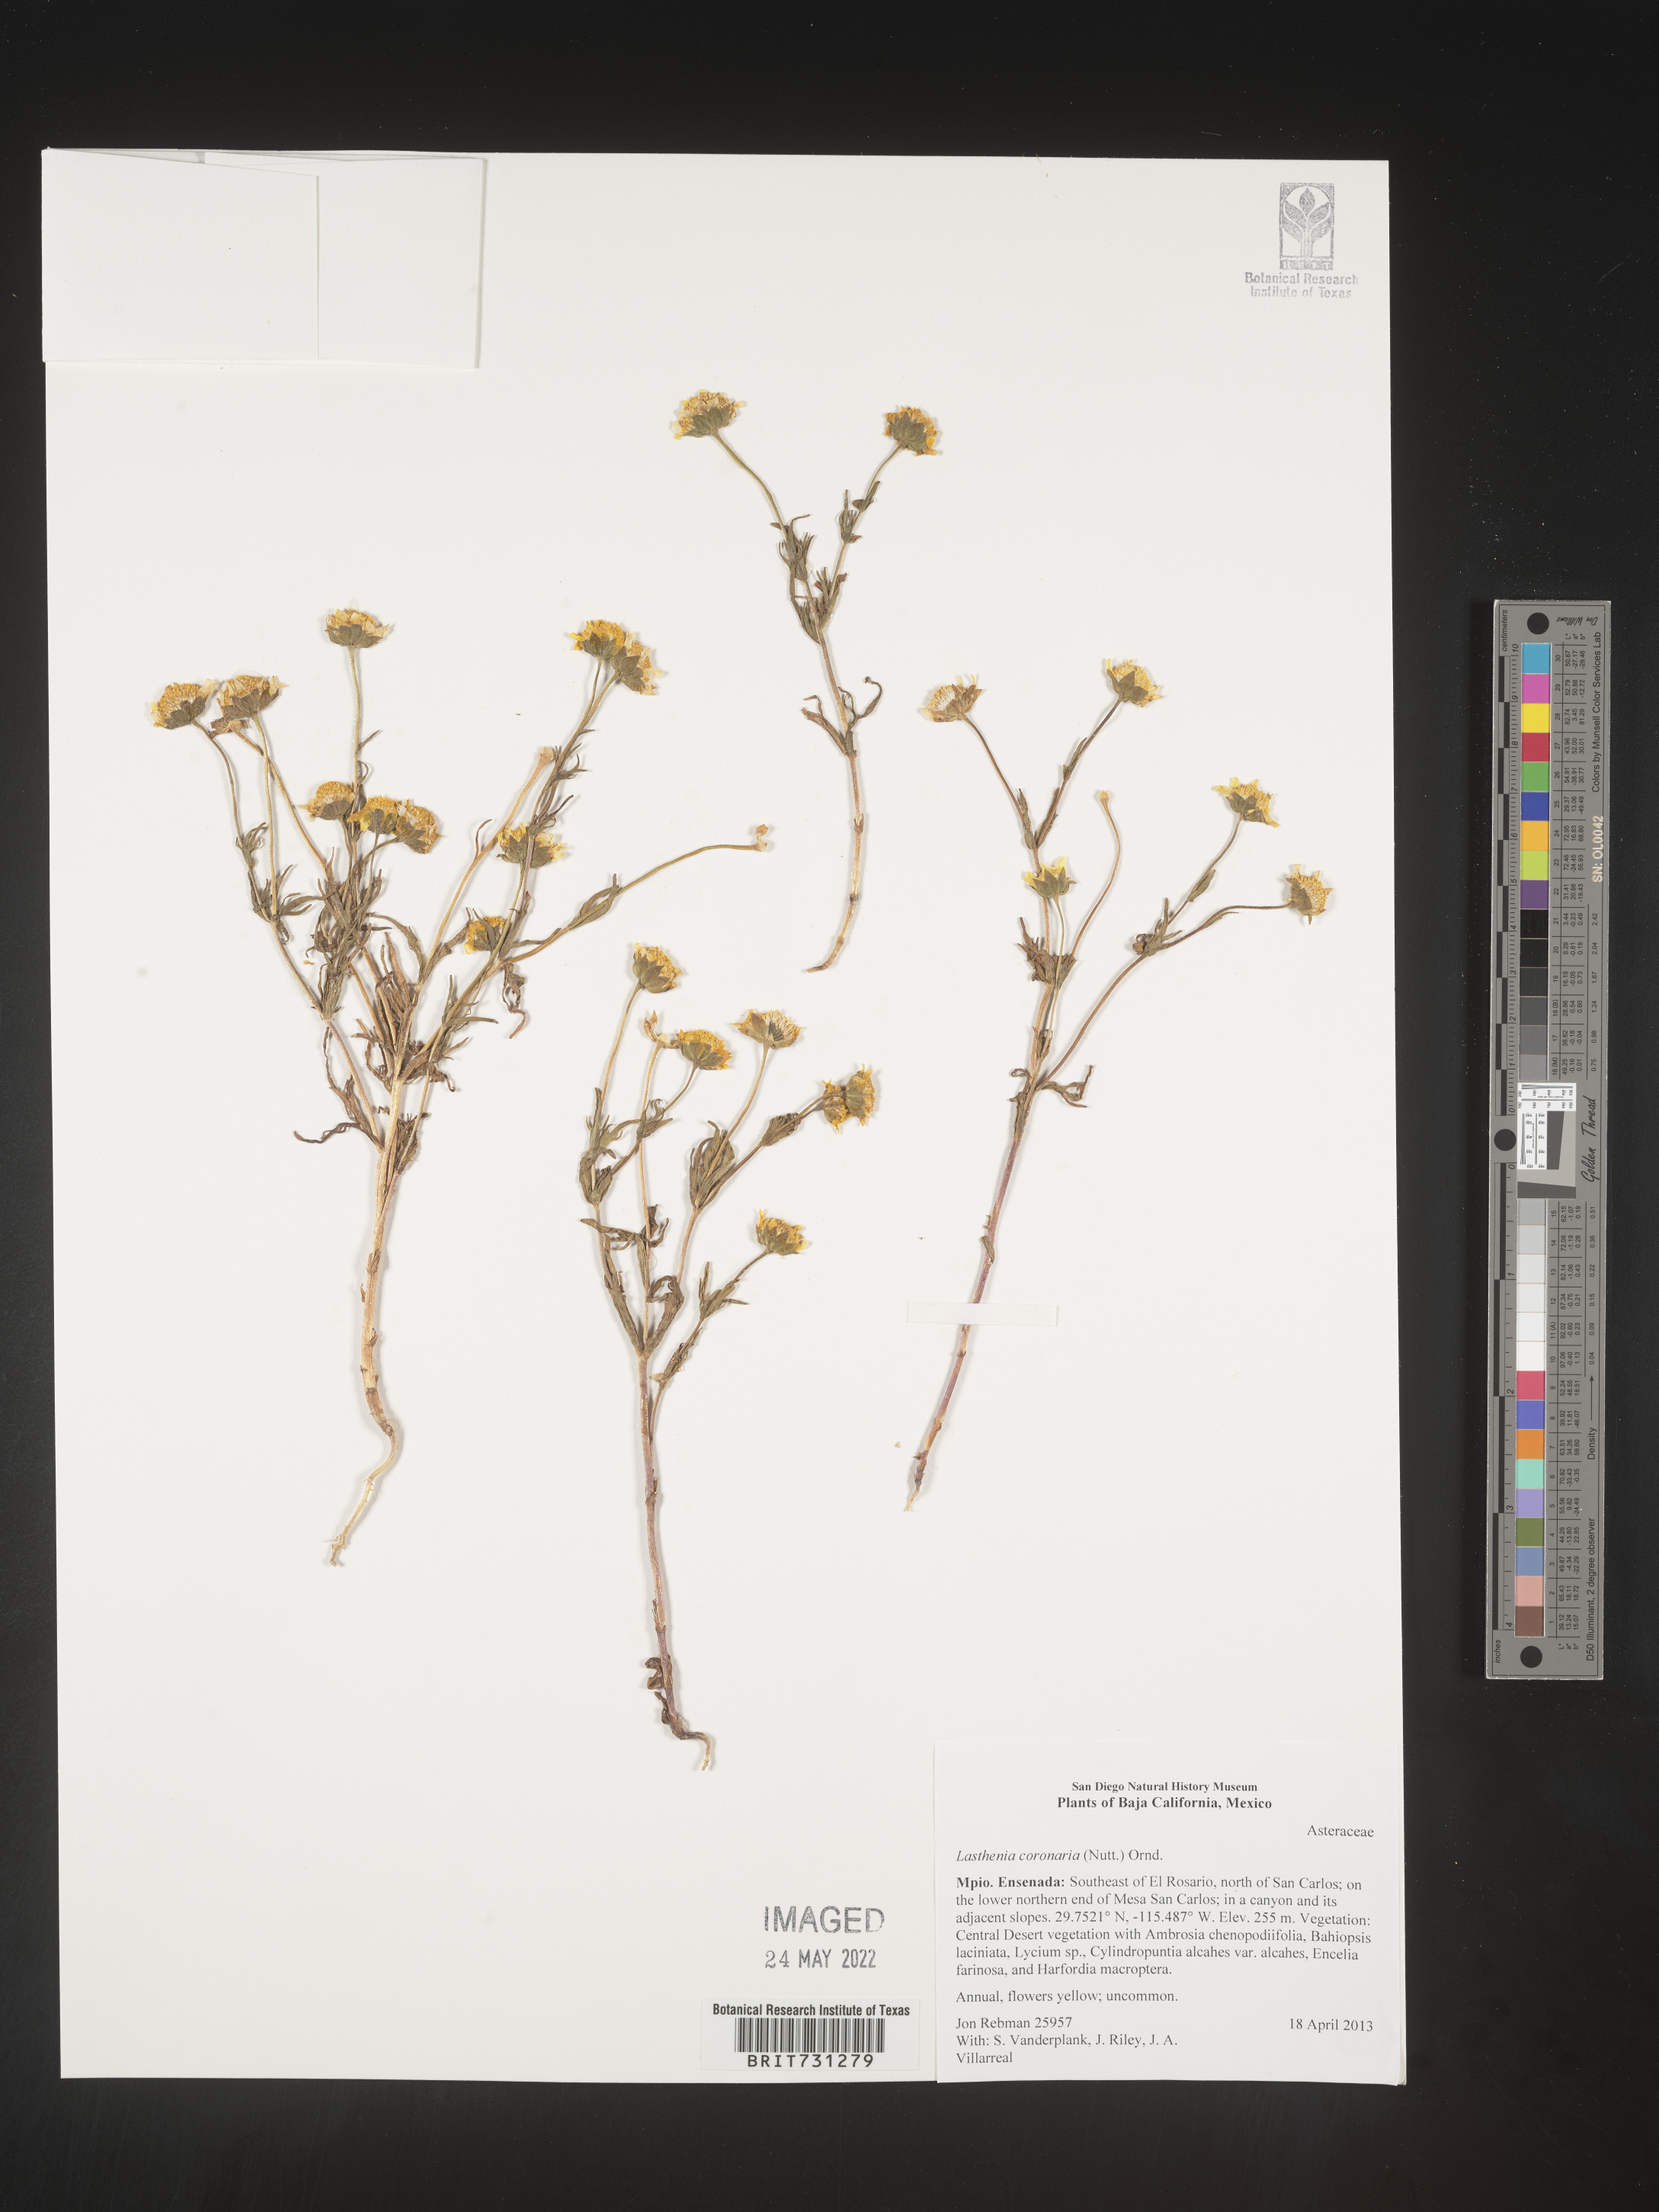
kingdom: Plantae
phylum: Tracheophyta
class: Magnoliopsida
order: Asterales
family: Asteraceae
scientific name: Asteraceae
